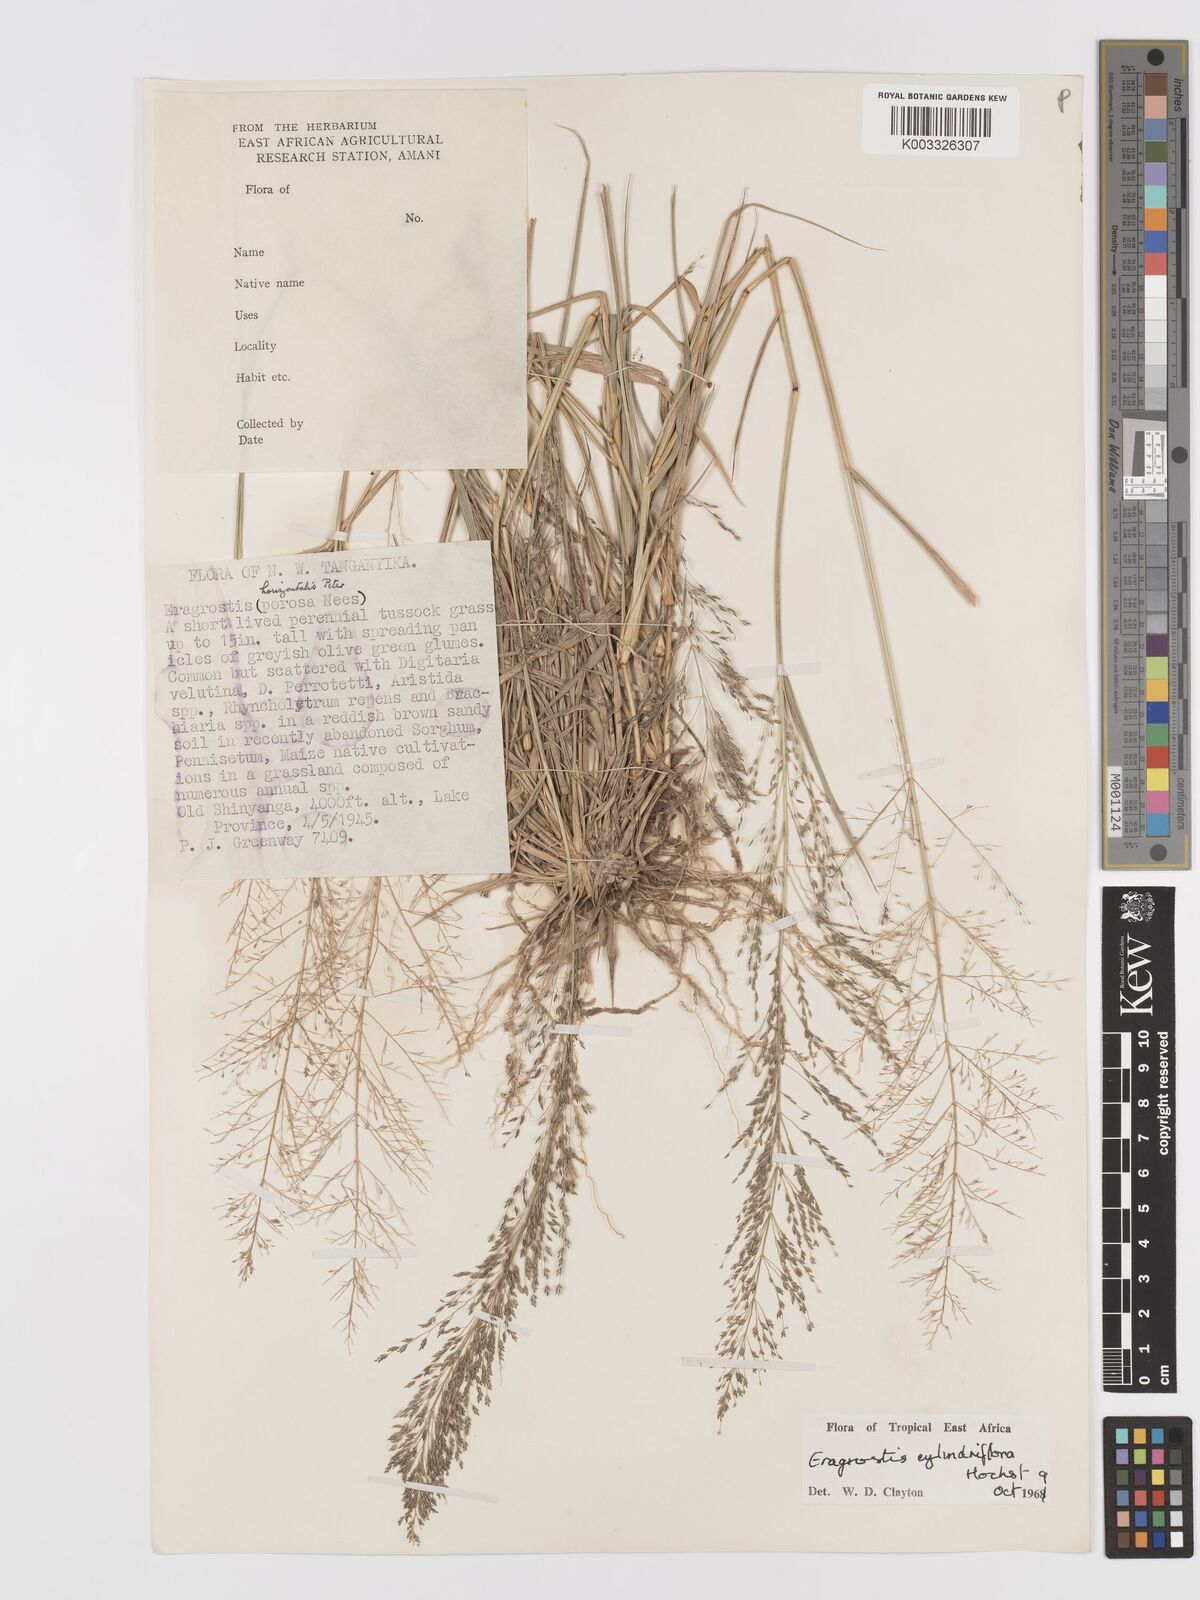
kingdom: Plantae
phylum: Tracheophyta
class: Liliopsida
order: Poales
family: Poaceae
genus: Eragrostis
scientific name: Eragrostis cylindriflora
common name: Cylinderflower lovegrass
